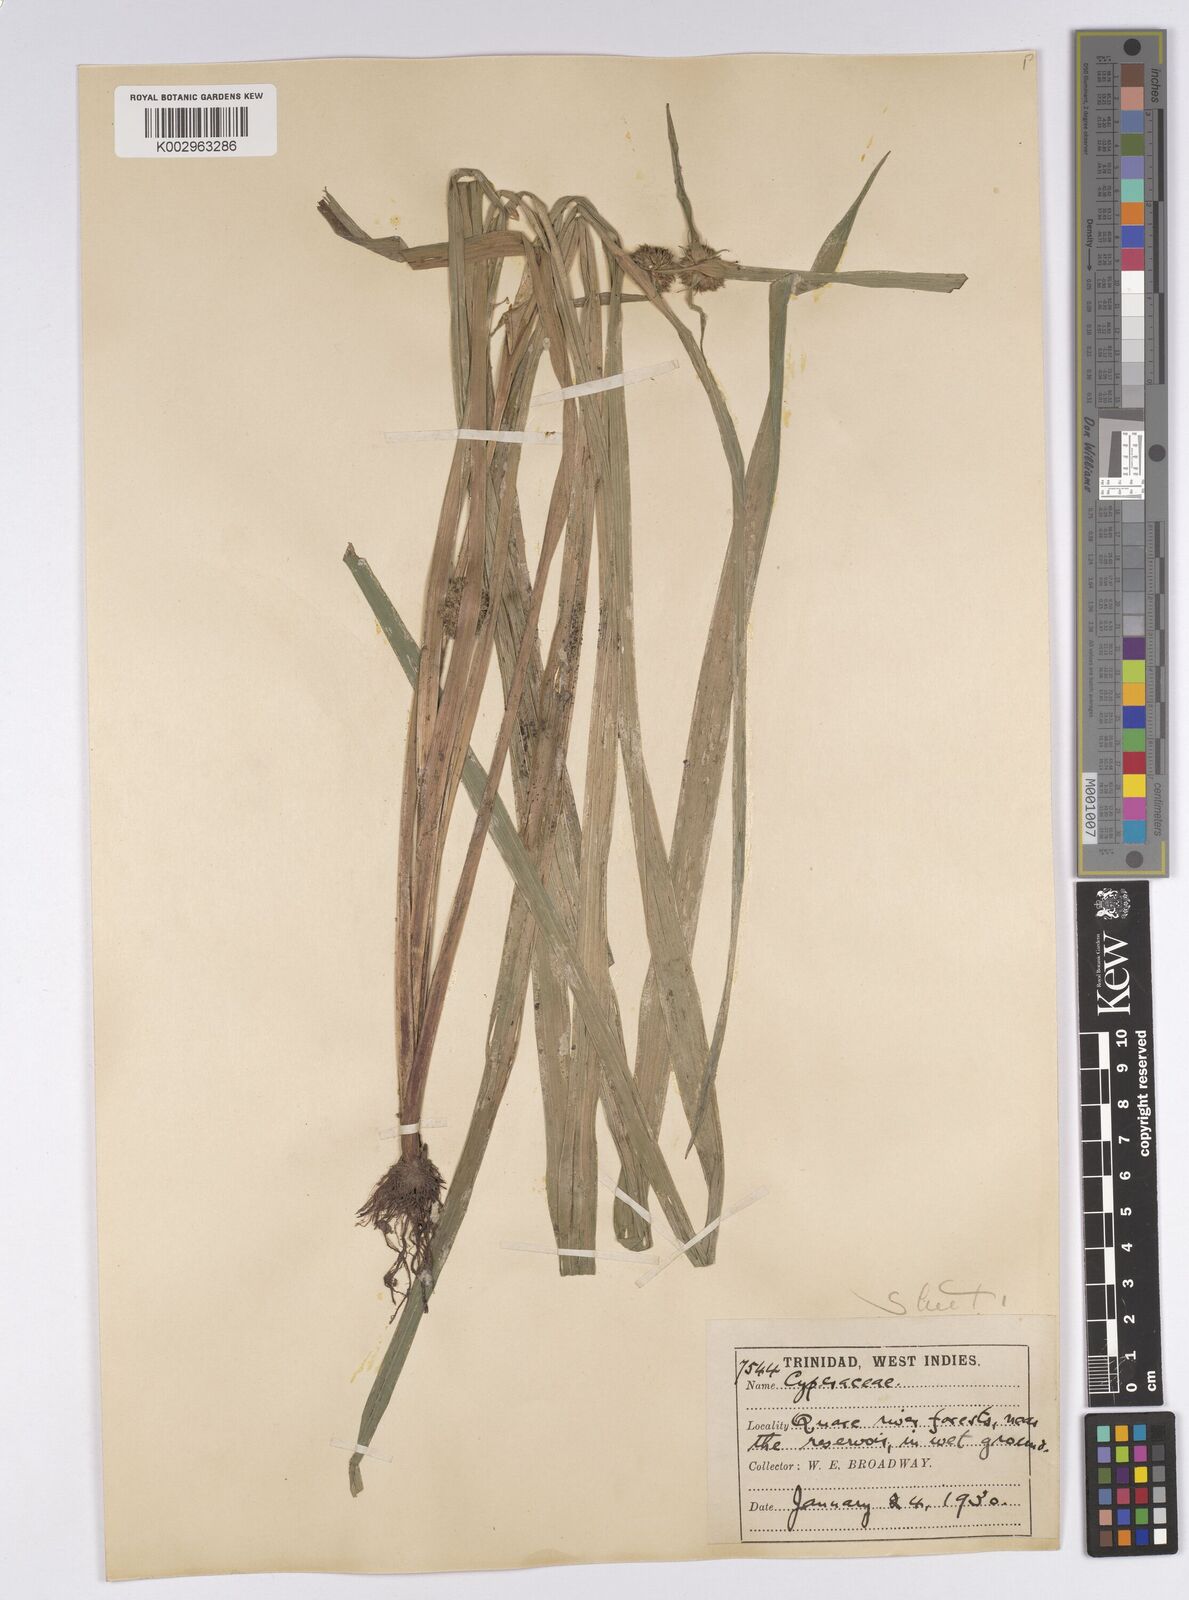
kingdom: Plantae
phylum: Tracheophyta
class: Liliopsida
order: Poales
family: Cyperaceae
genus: Diplacrum
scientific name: Diplacrum capitatum
